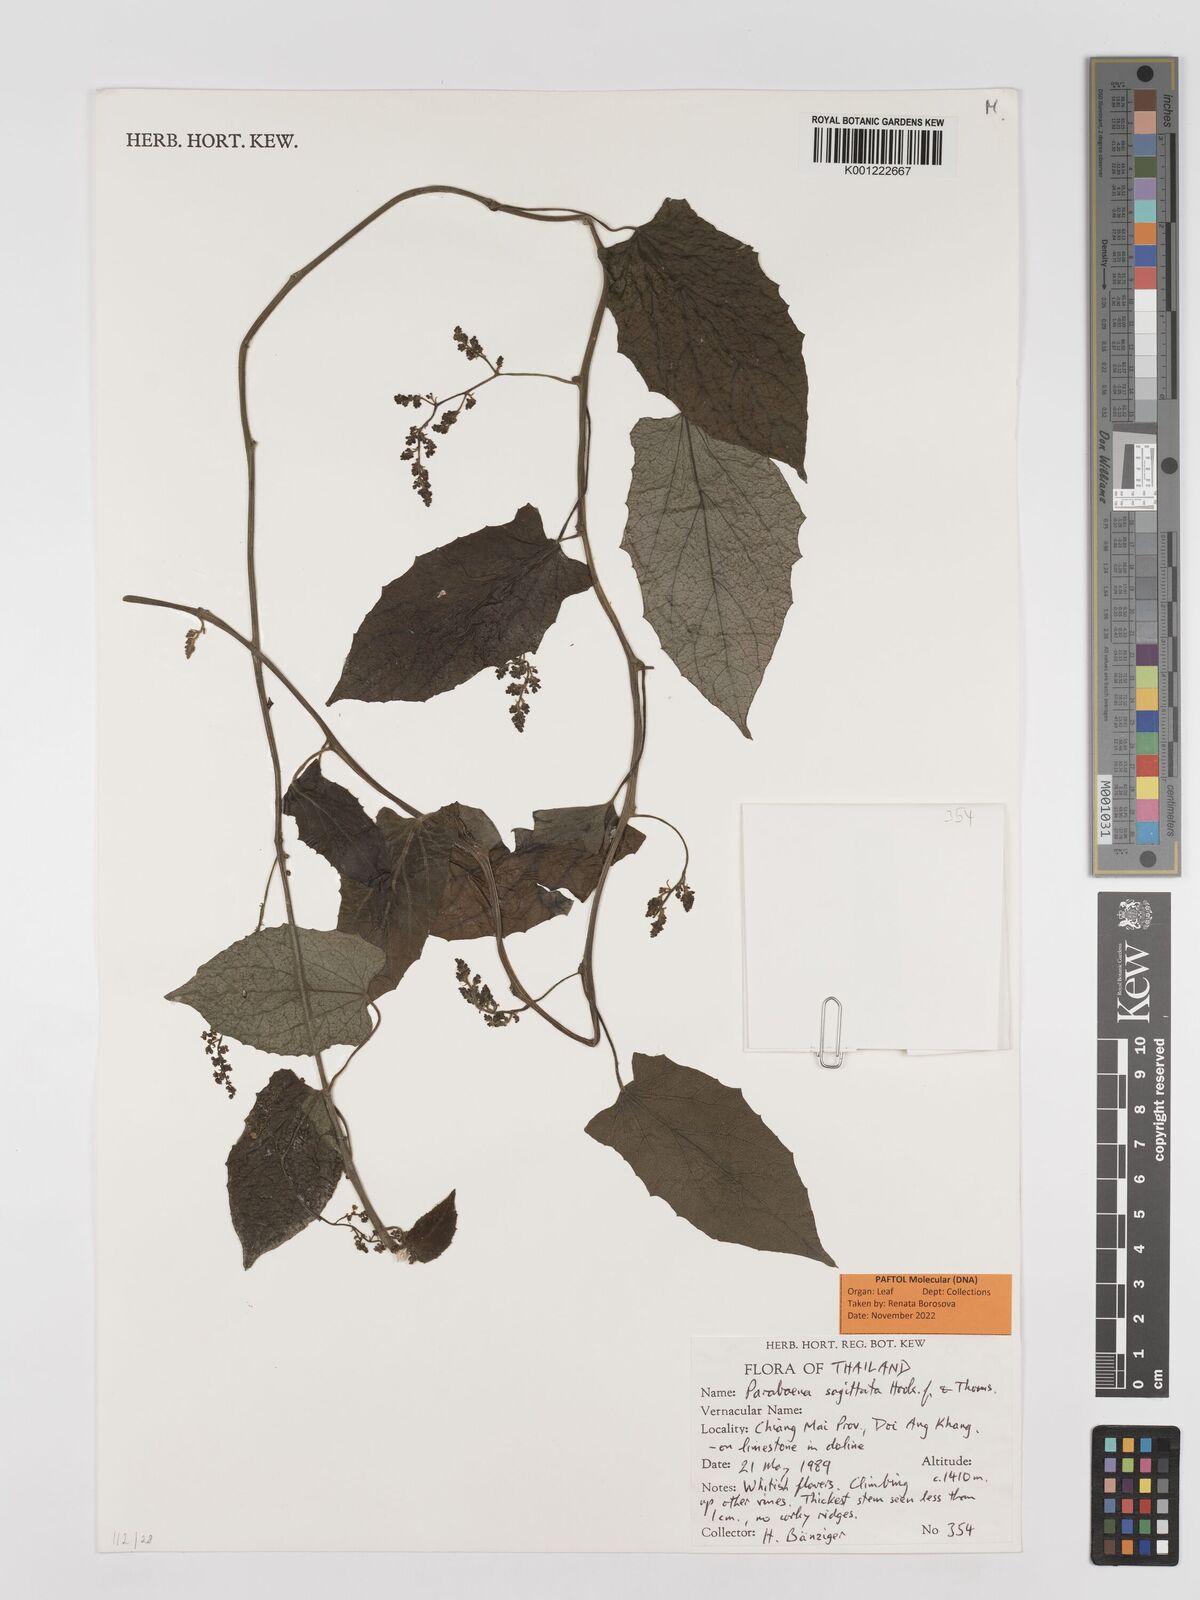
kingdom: Plantae
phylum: Tracheophyta
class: Magnoliopsida
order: Ranunculales
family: Menispermaceae
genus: Parabaena
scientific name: Parabaena sagittata
